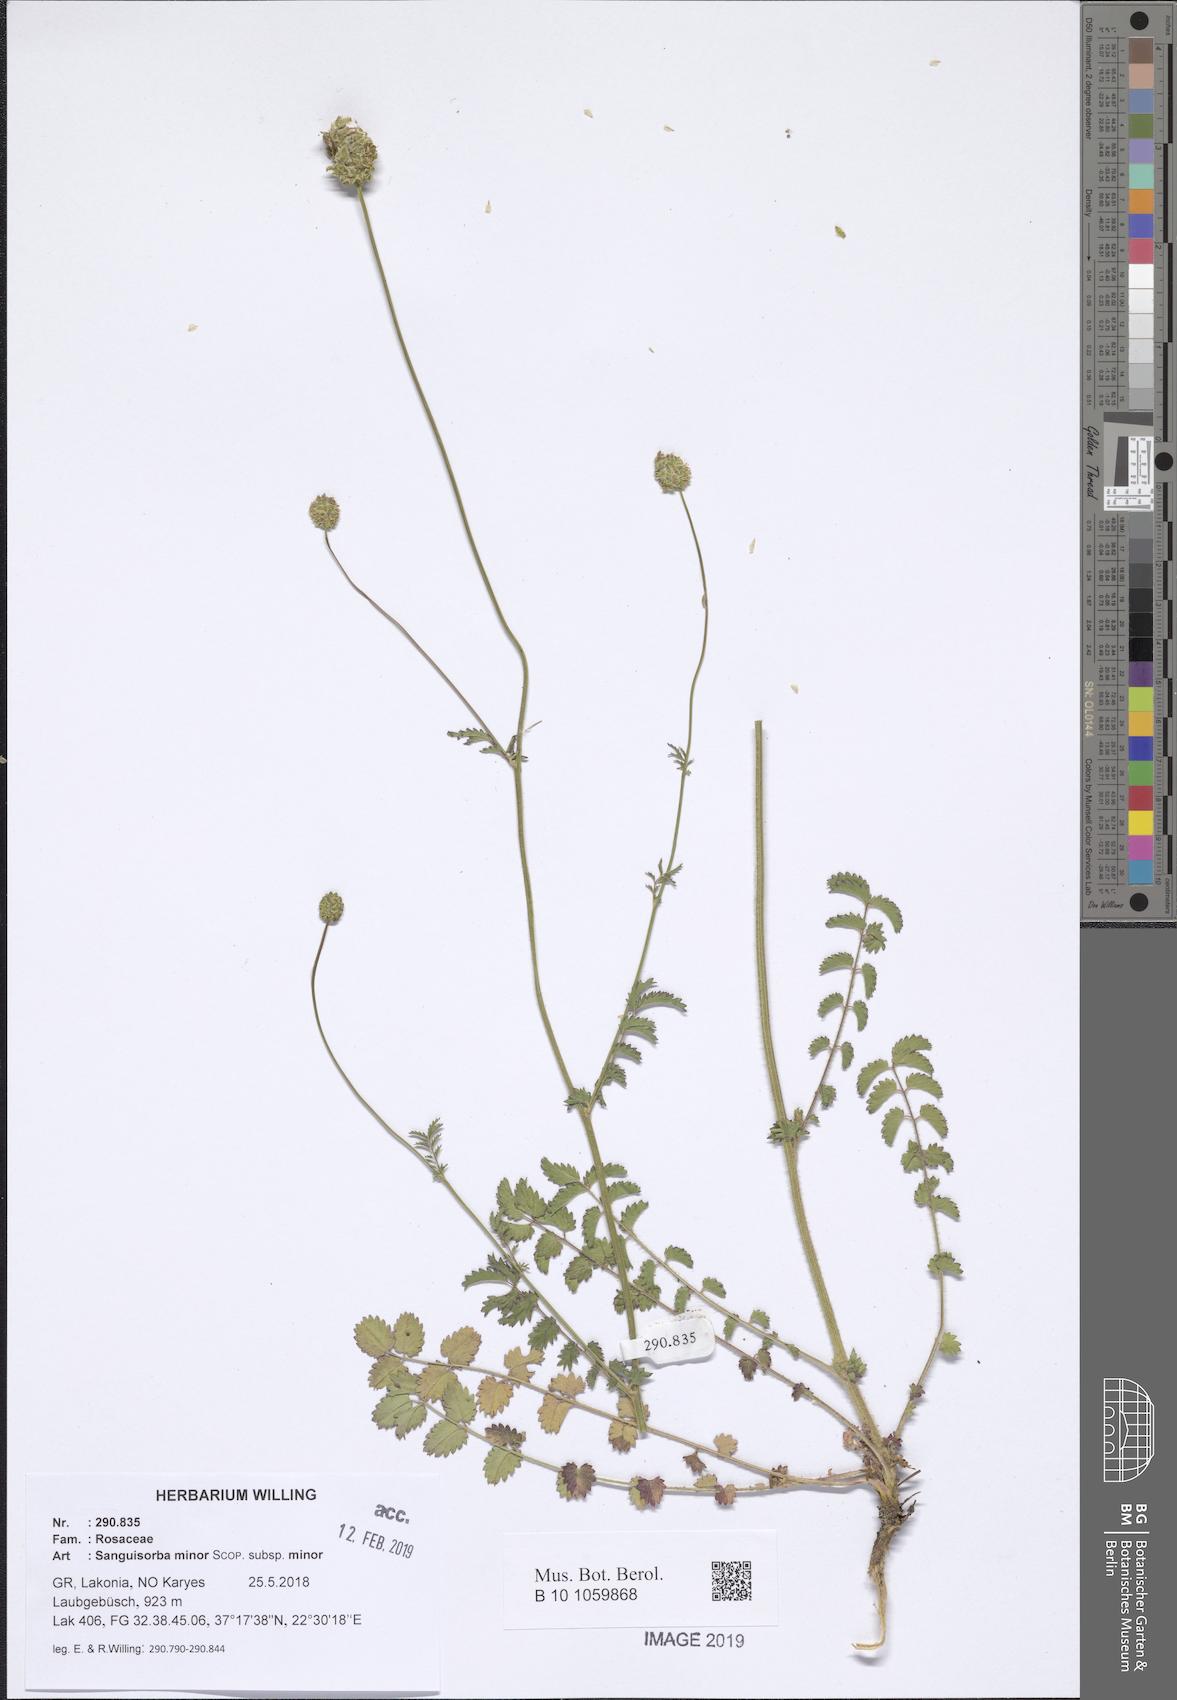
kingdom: Plantae
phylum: Tracheophyta
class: Magnoliopsida
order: Rosales
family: Rosaceae
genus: Poterium
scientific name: Poterium sanguisorba
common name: Salad burnet
